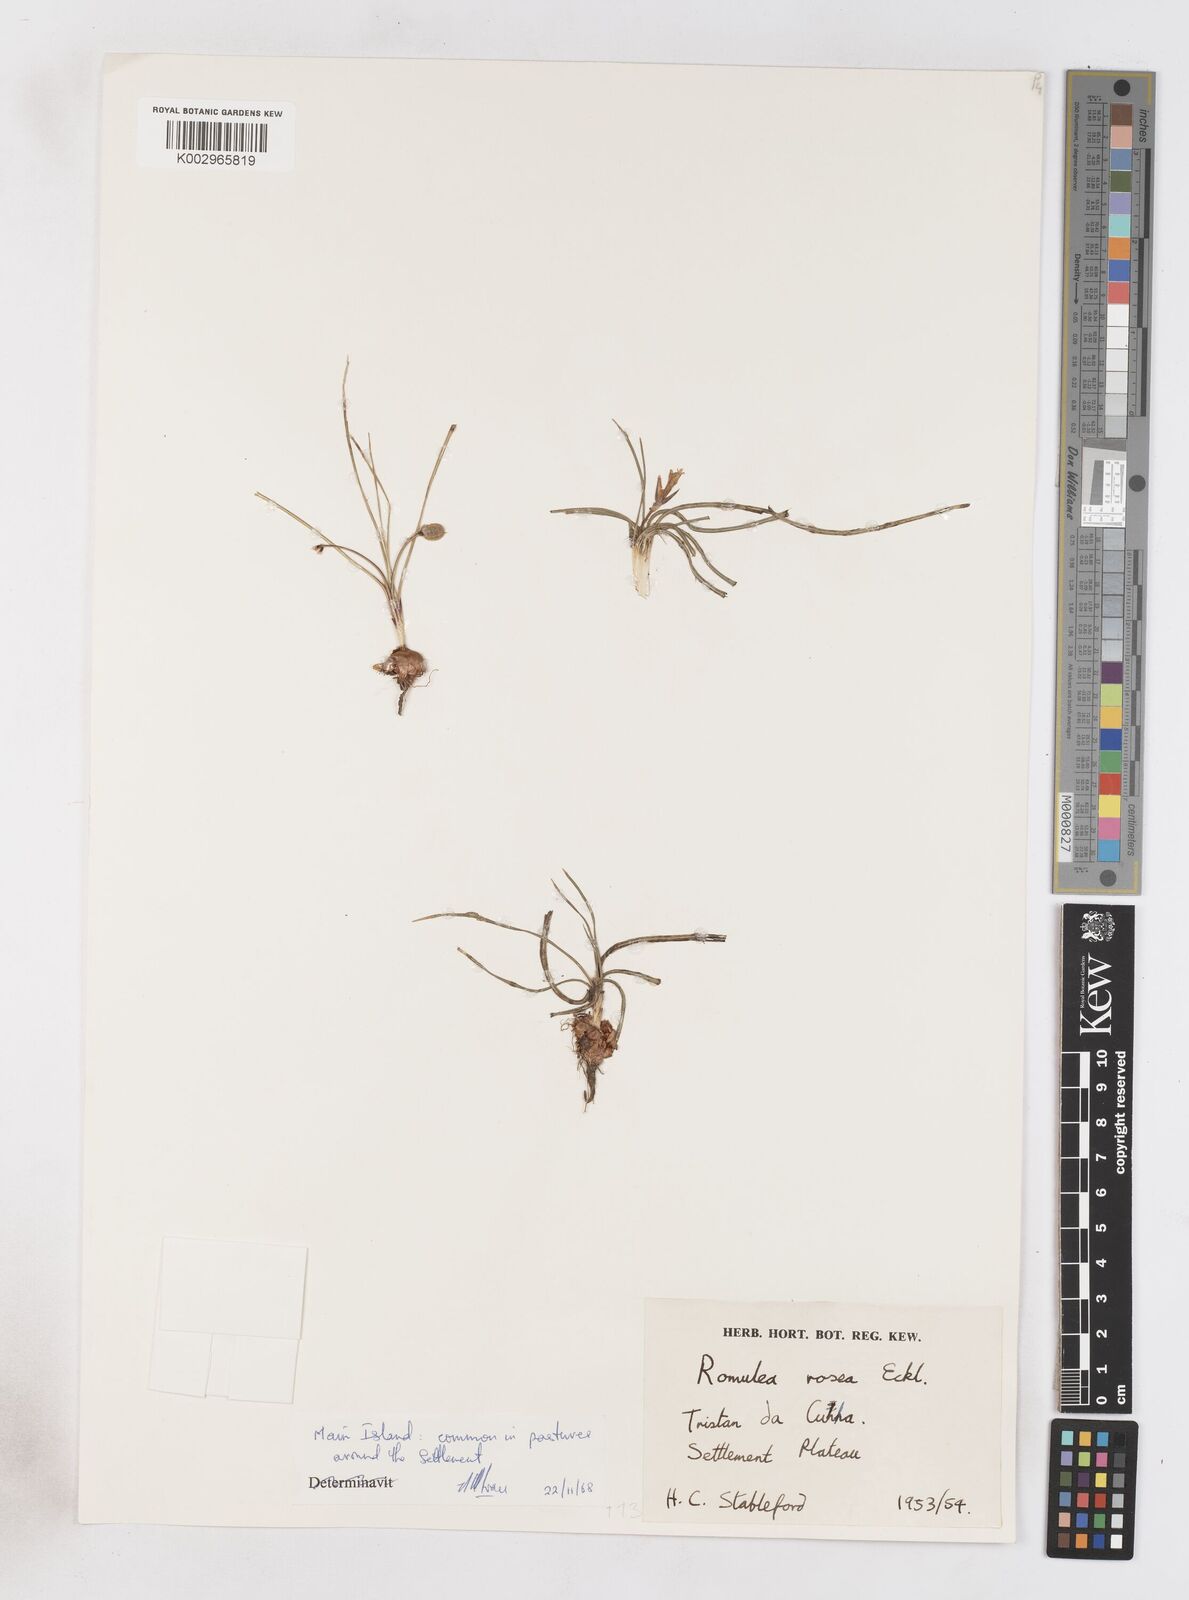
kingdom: Plantae
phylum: Tracheophyta
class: Liliopsida
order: Asparagales
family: Iridaceae
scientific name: Iridaceae
